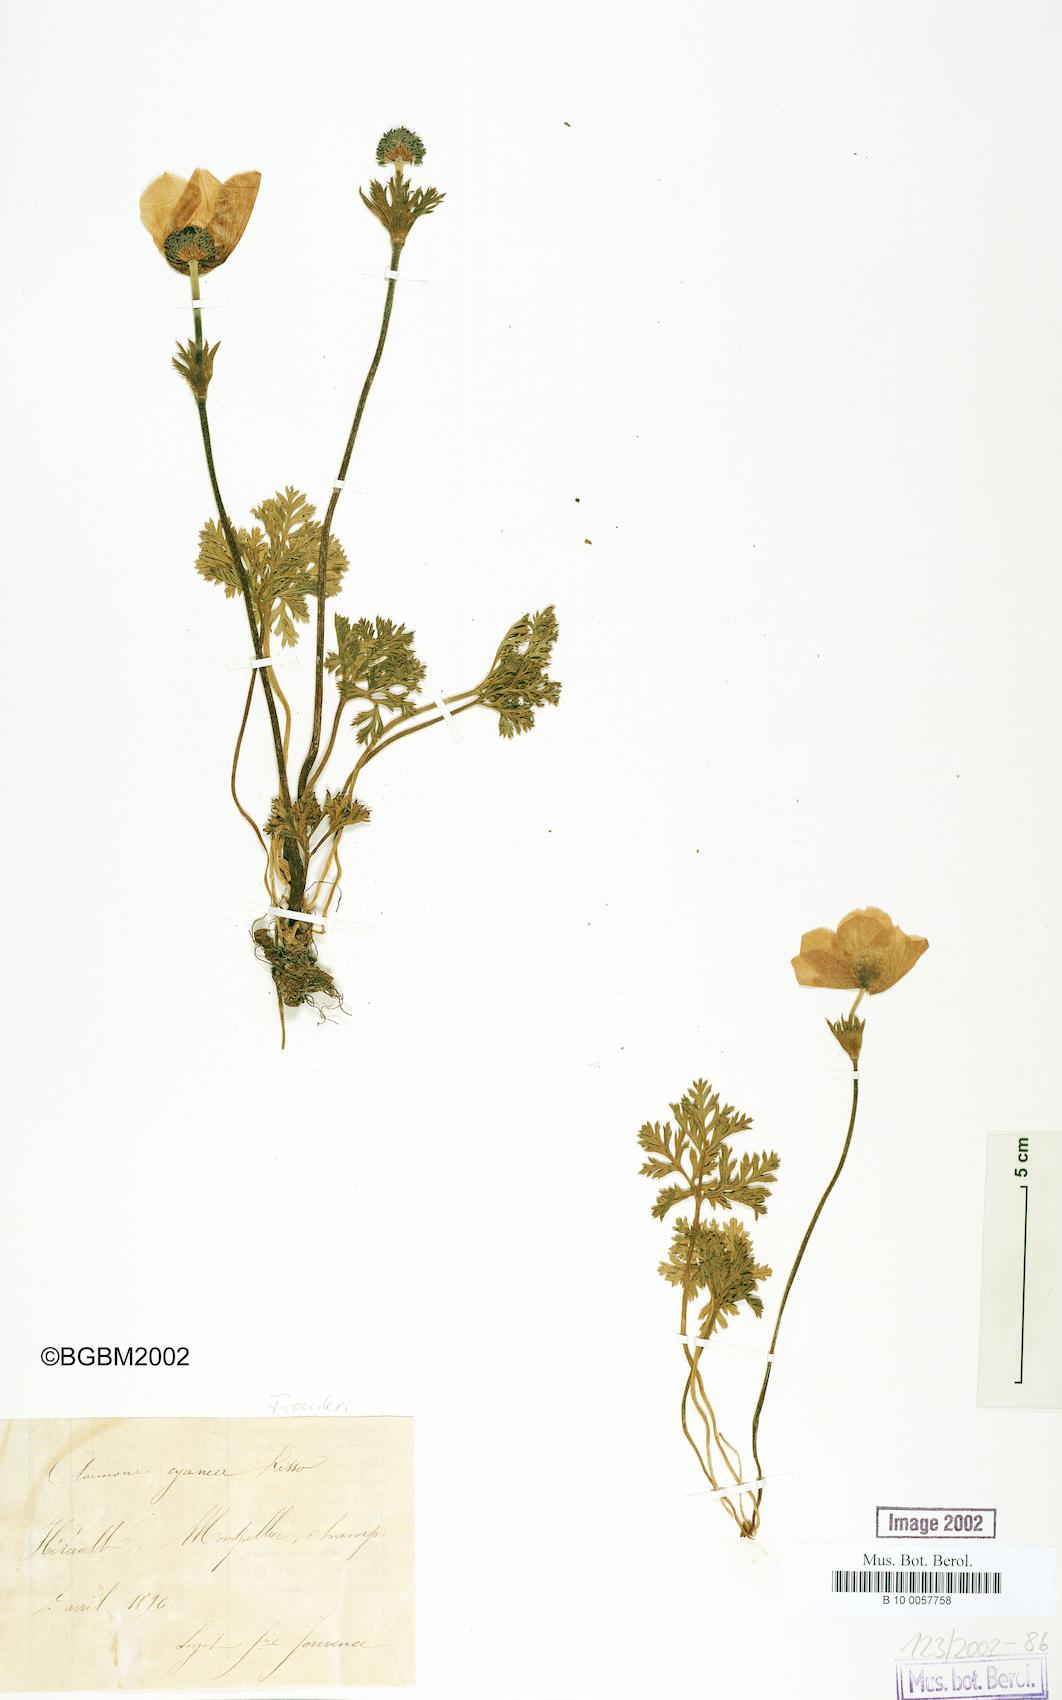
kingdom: Plantae
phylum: Tracheophyta
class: Magnoliopsida
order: Ranunculales
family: Ranunculaceae
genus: Anemone
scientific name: Anemone
